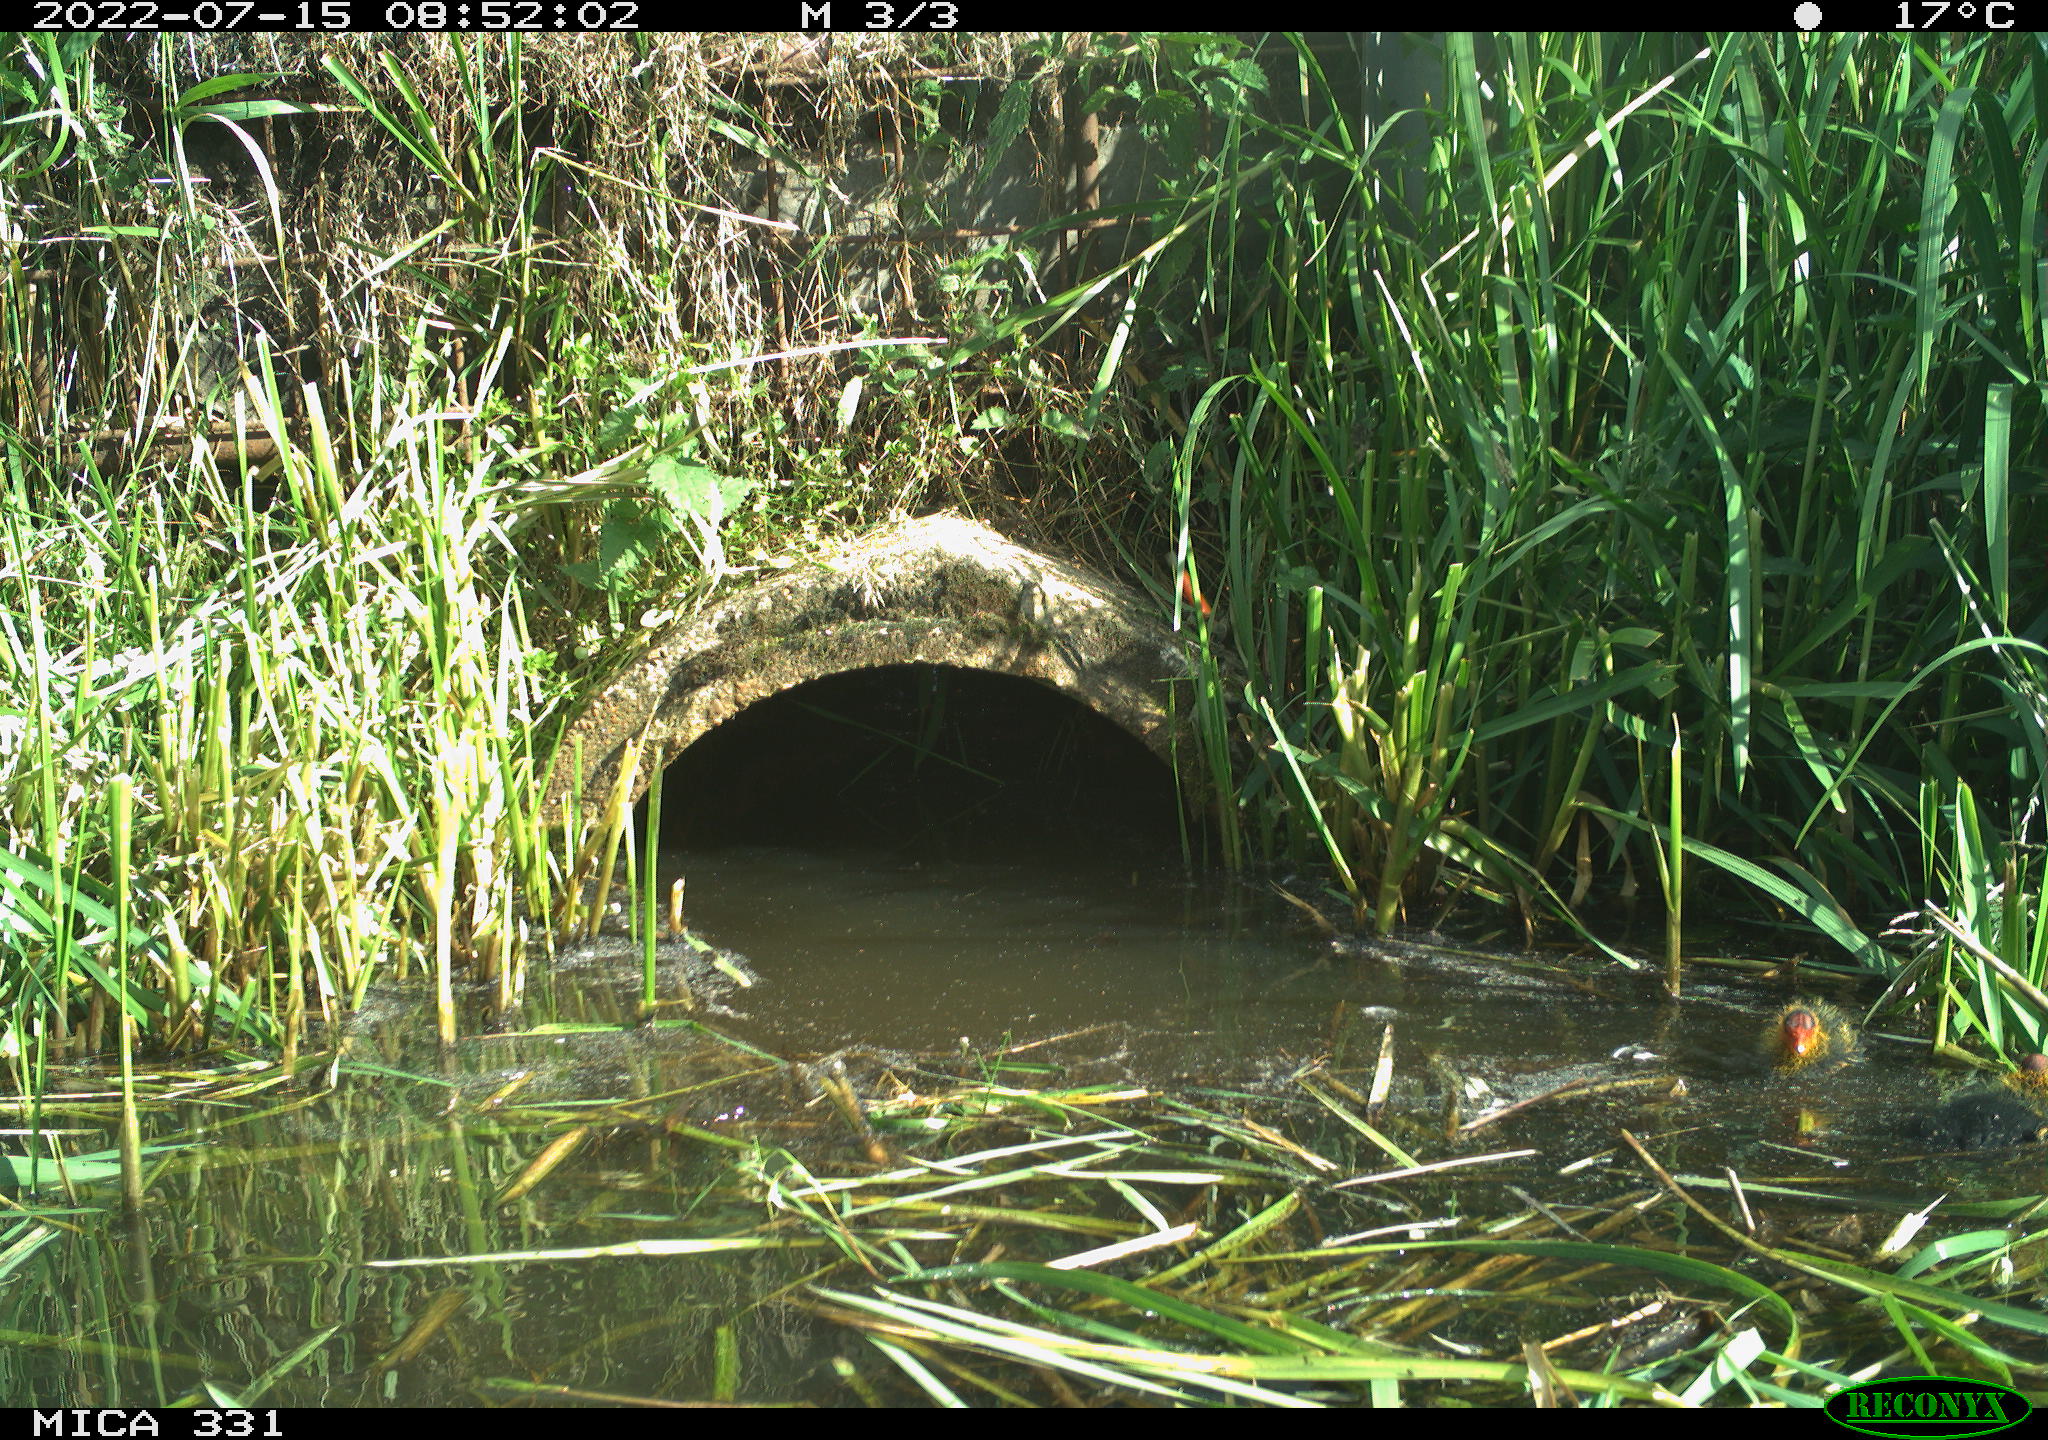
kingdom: Animalia
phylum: Chordata
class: Aves
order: Gruiformes
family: Rallidae
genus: Fulica
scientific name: Fulica atra
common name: Eurasian coot
